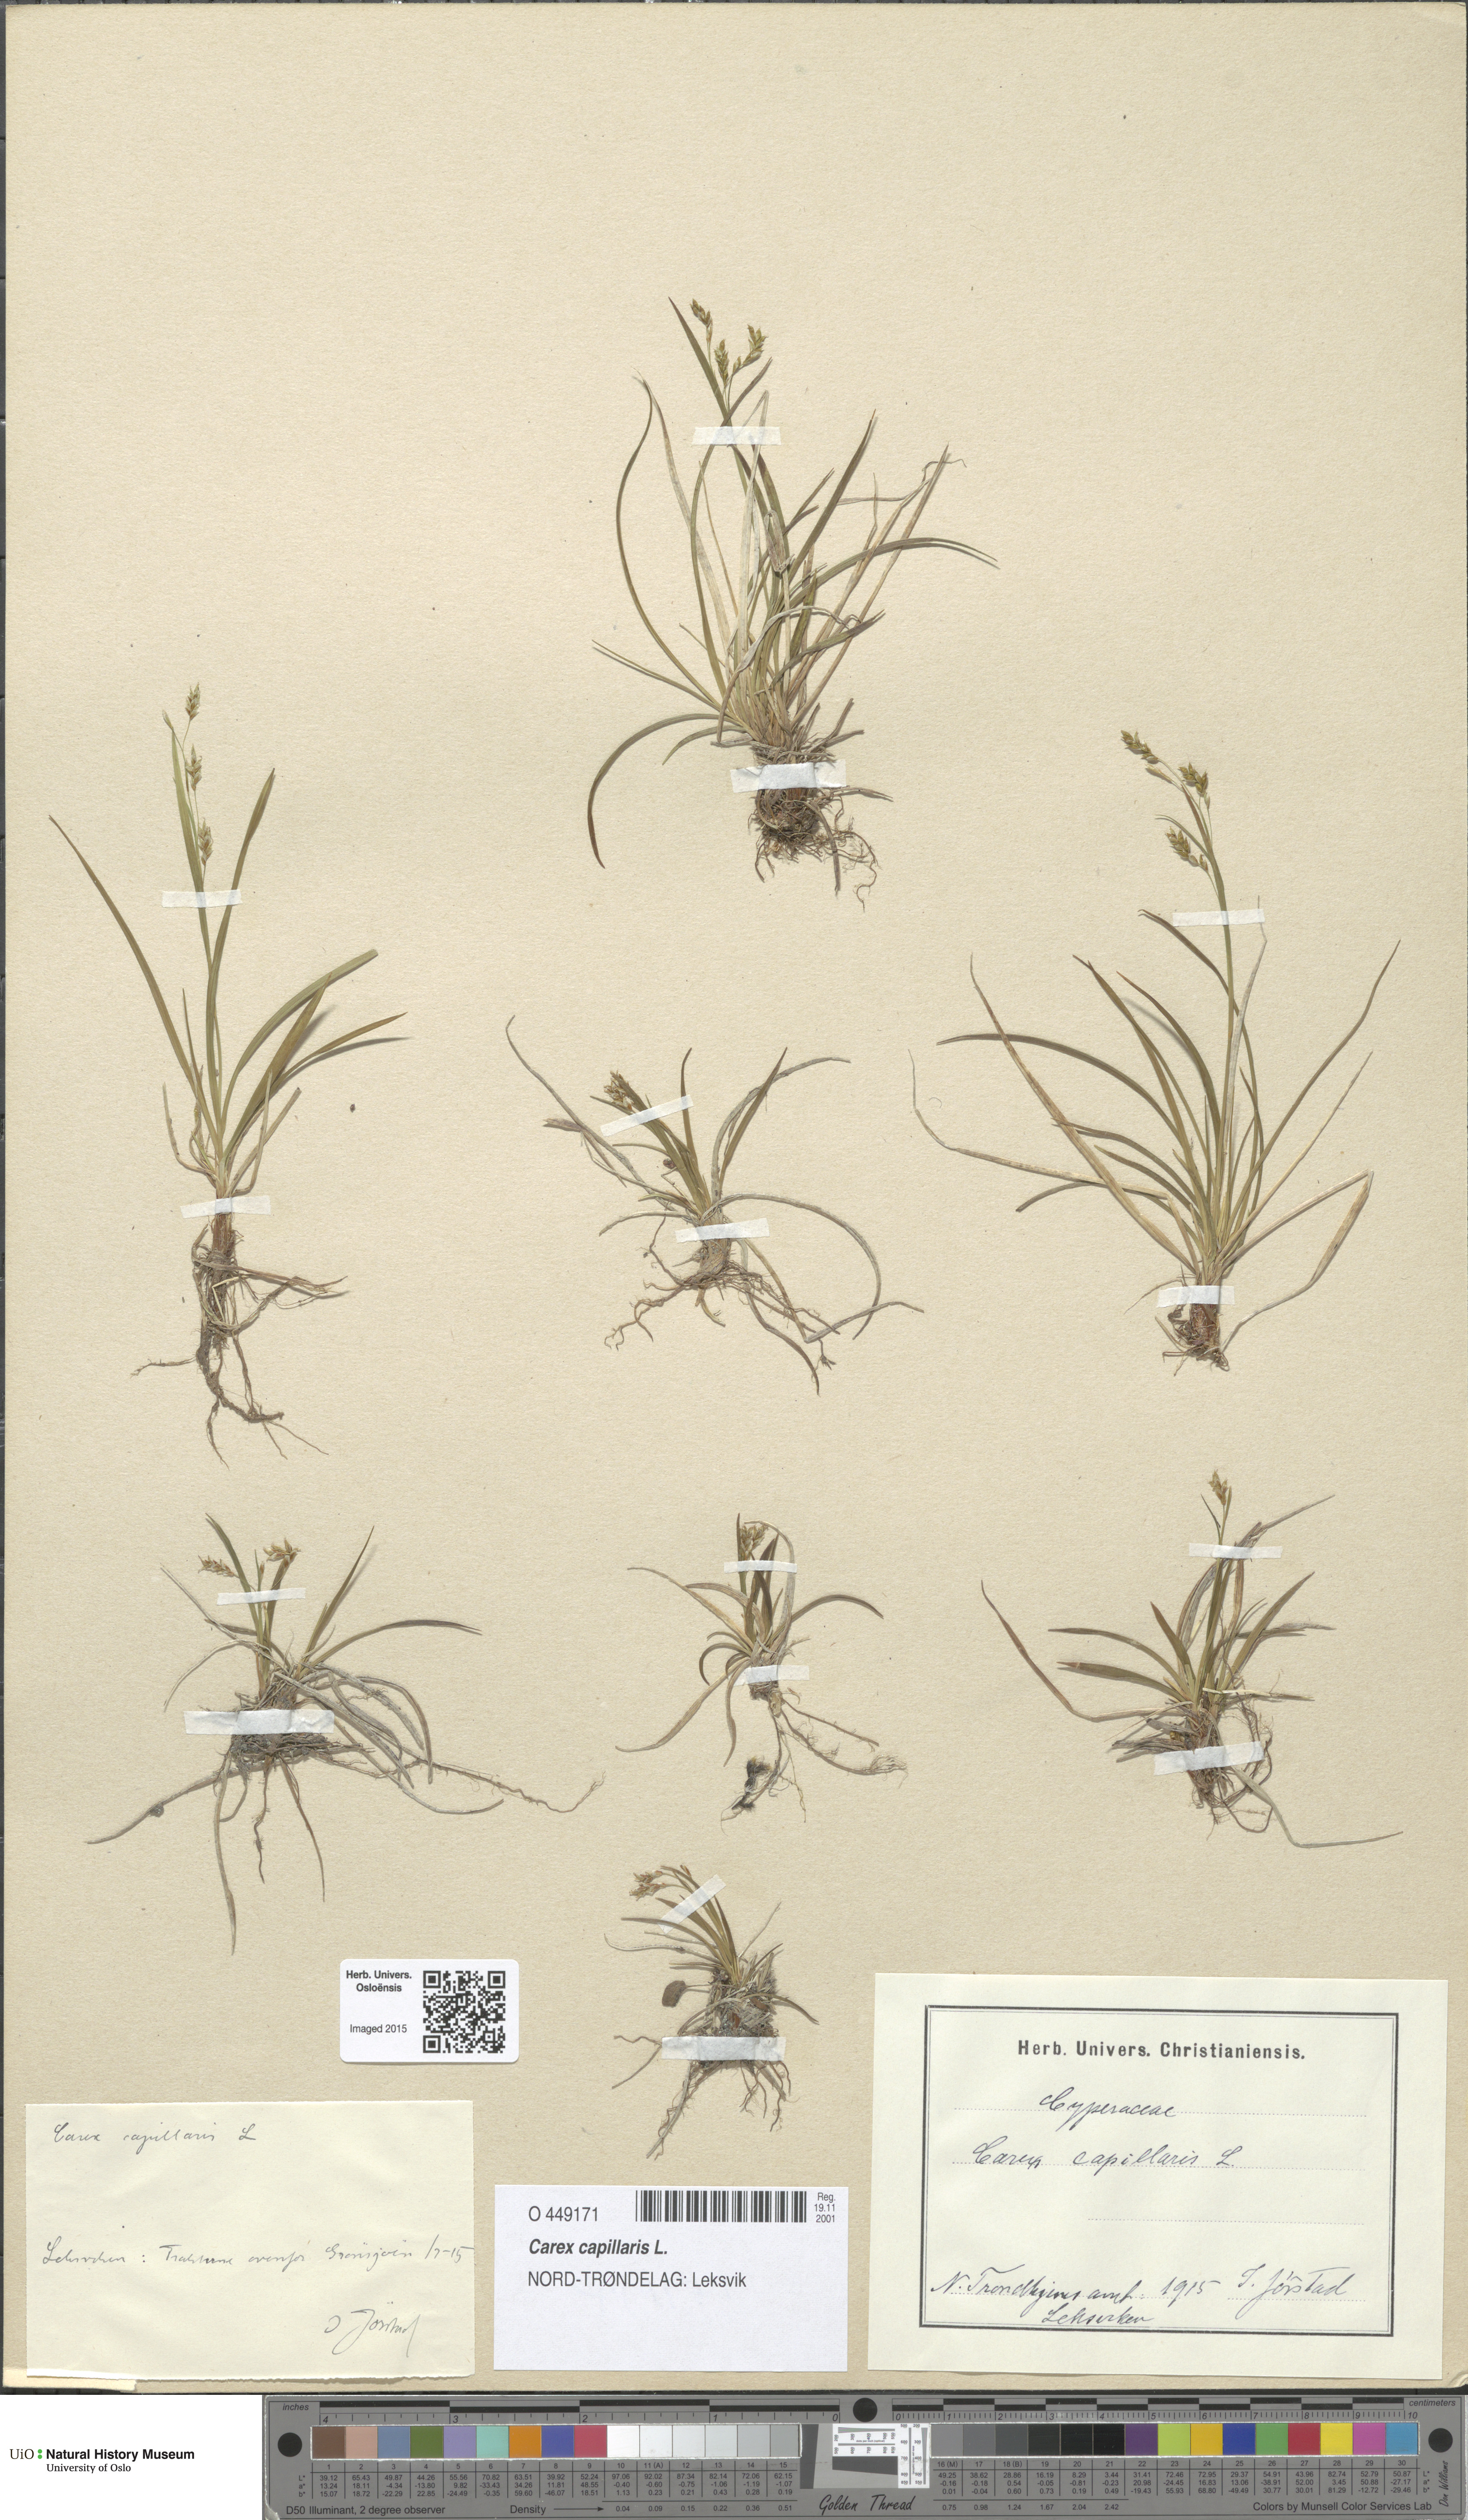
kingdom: Plantae
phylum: Tracheophyta
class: Liliopsida
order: Poales
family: Cyperaceae
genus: Carex
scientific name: Carex capillaris
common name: Hair sedge
